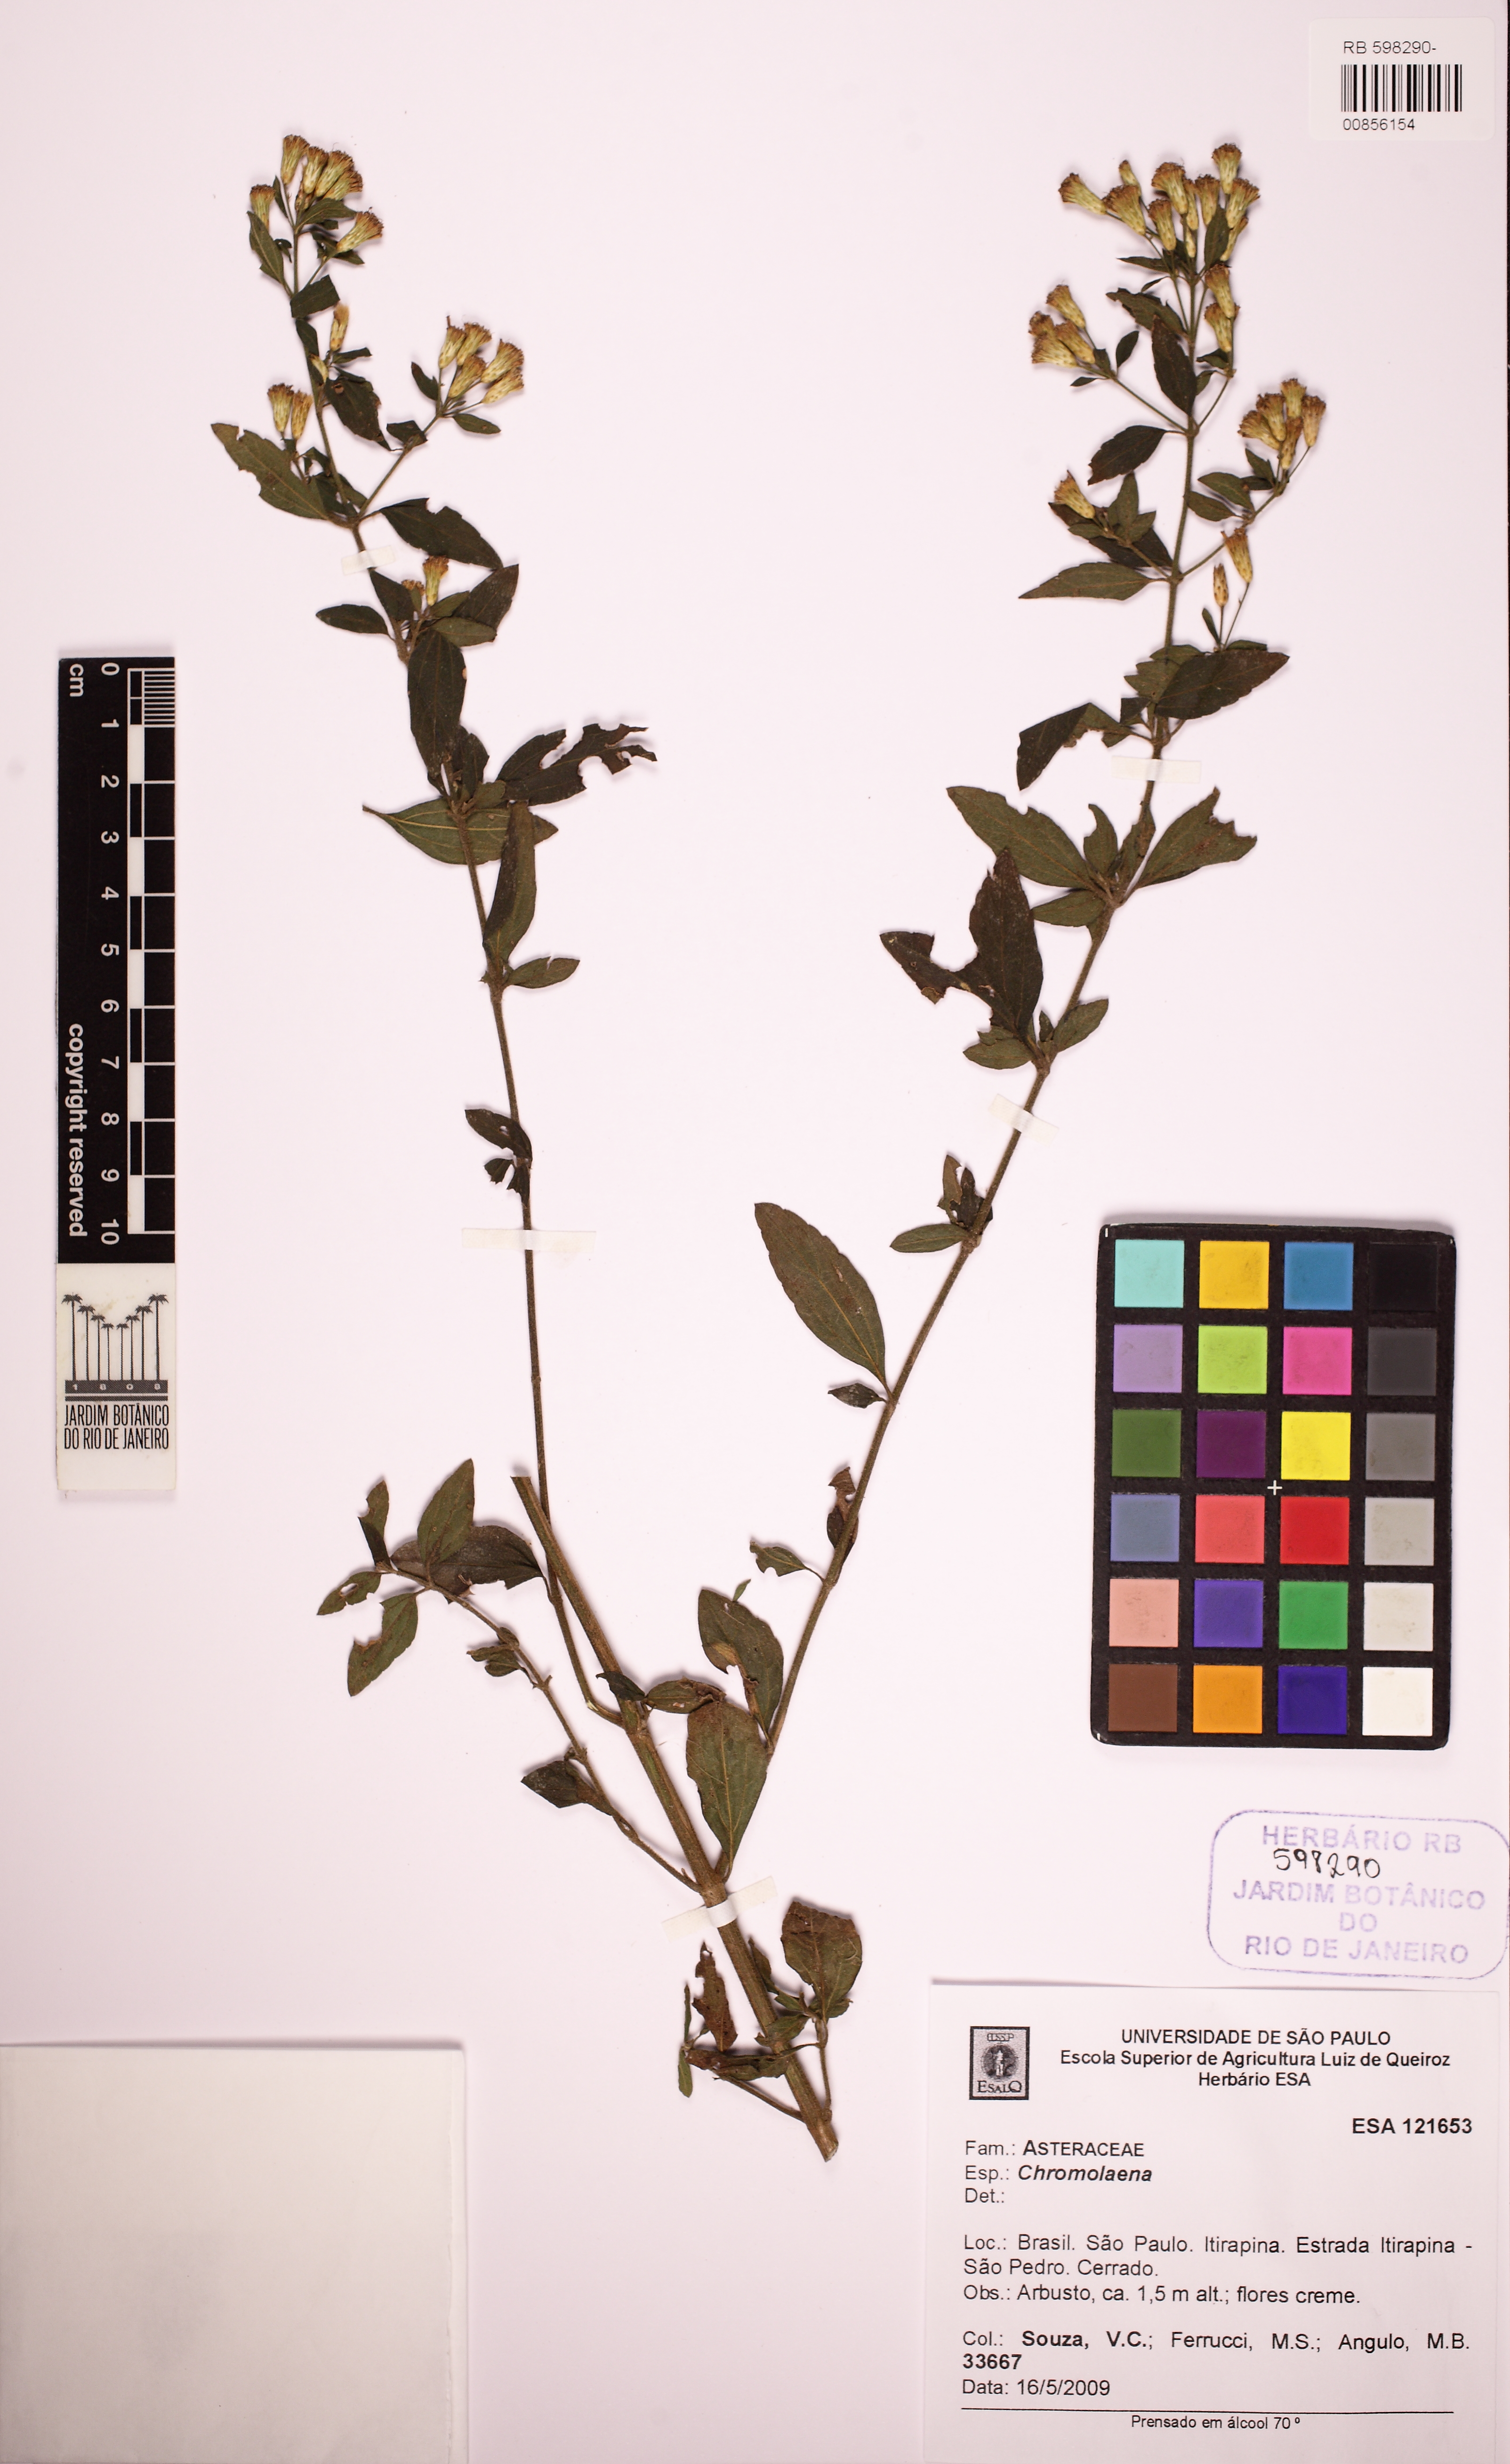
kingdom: Plantae
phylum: Tracheophyta
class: Magnoliopsida
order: Asterales
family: Asteraceae
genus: Chromolaena
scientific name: Chromolaena
